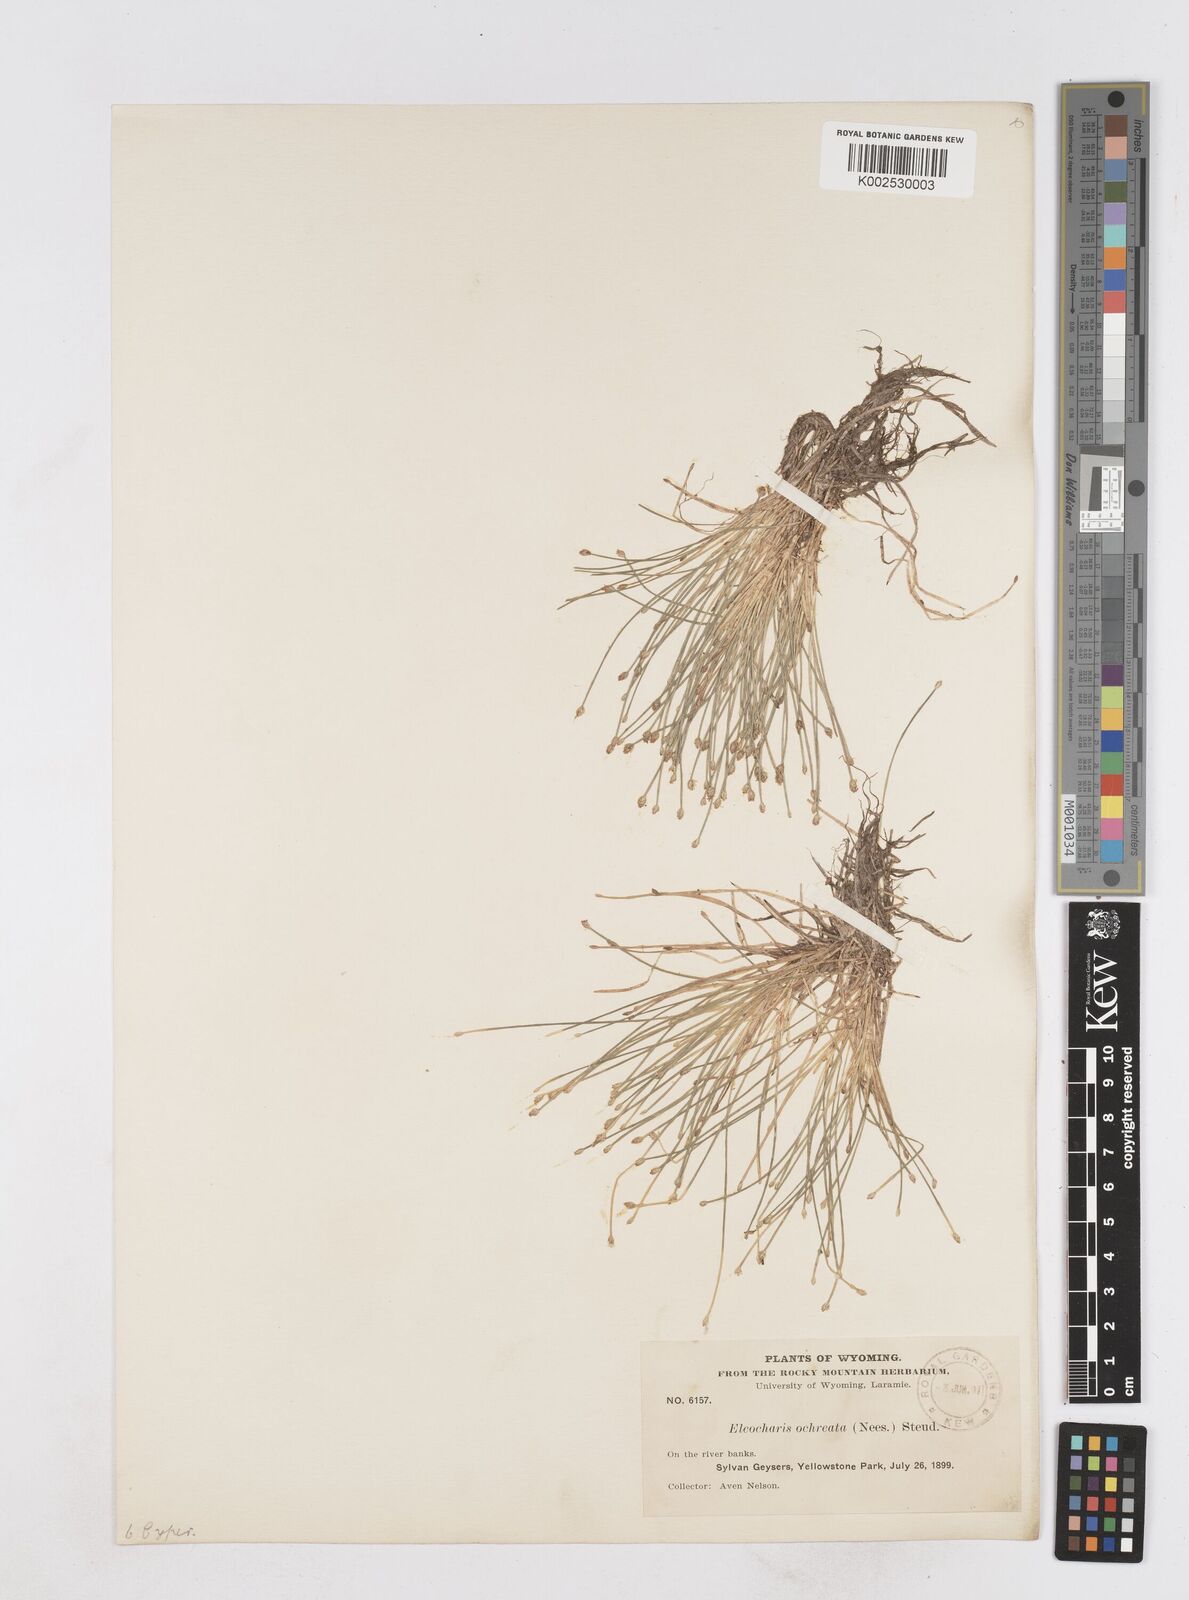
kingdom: Plantae
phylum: Tracheophyta
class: Liliopsida
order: Poales
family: Cyperaceae
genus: Eleocharis
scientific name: Eleocharis flavescens
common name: Yellow spikerush
